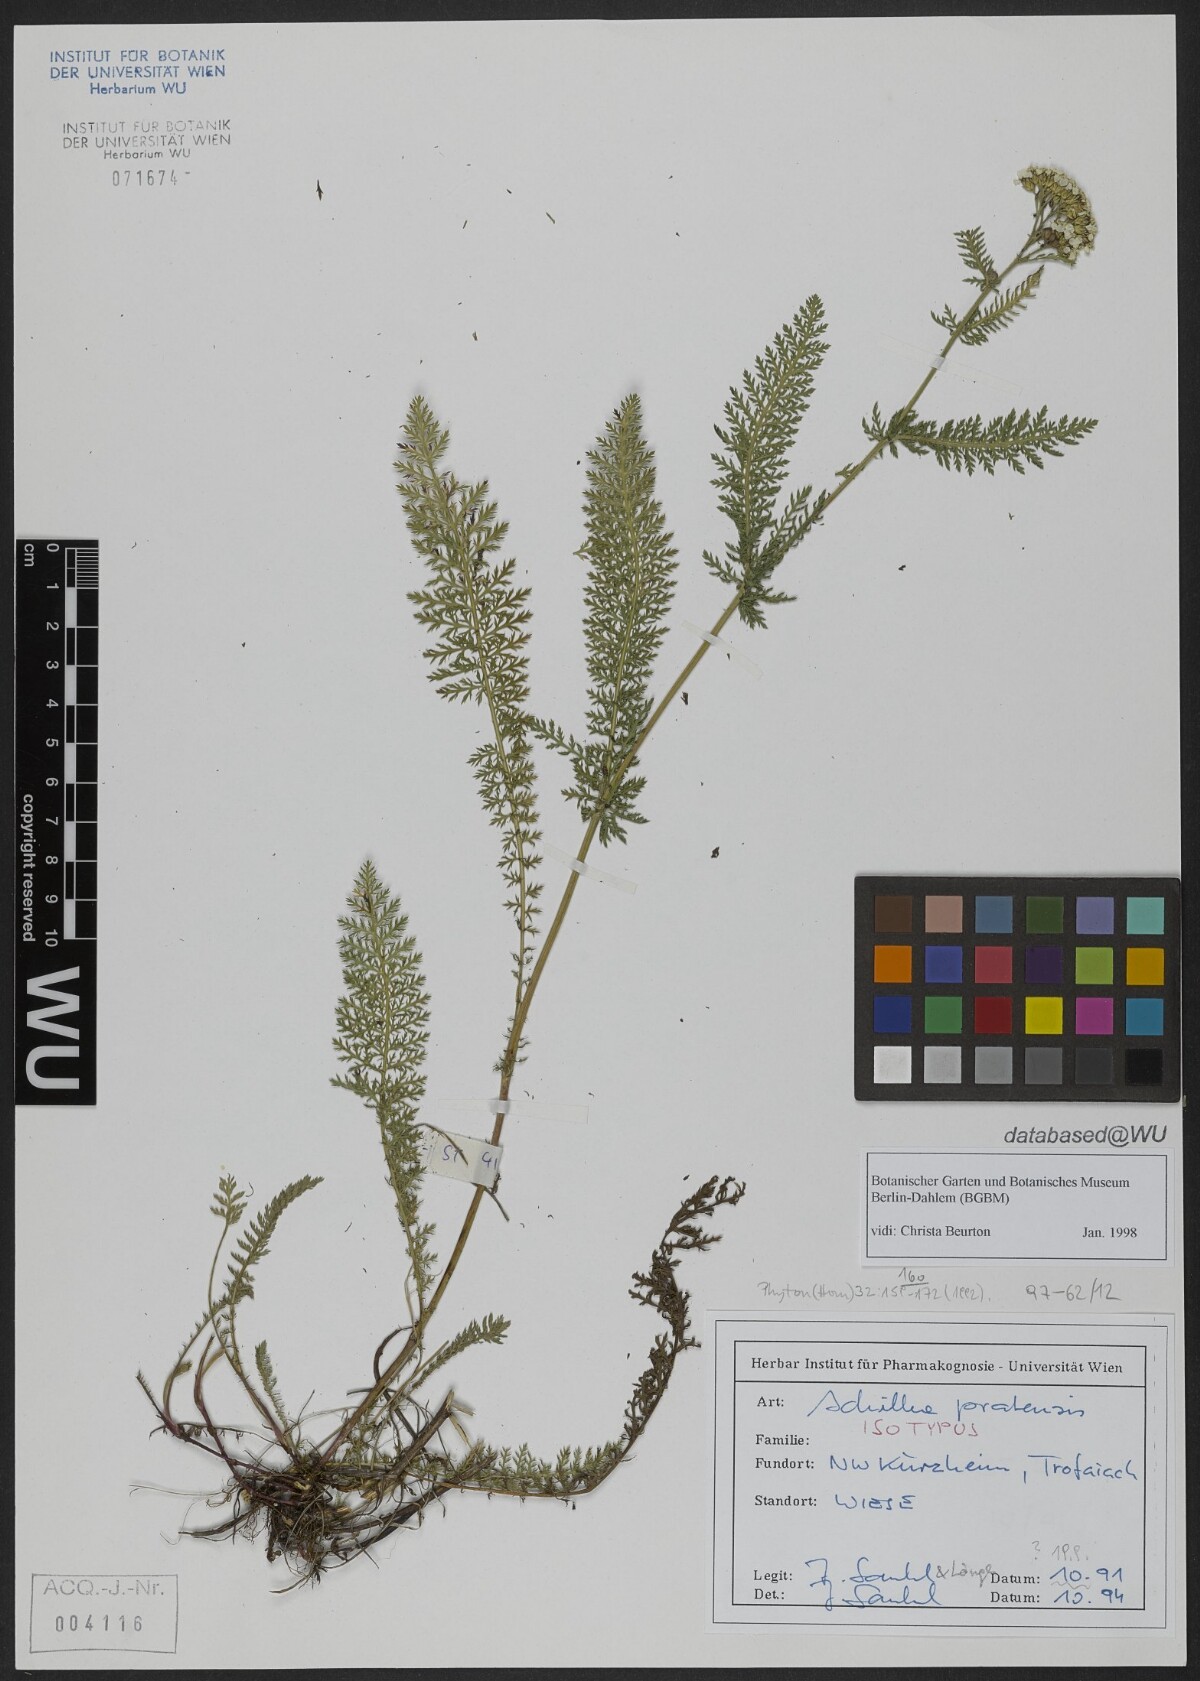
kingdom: Plantae
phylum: Tracheophyta
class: Magnoliopsida
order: Asterales
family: Asteraceae
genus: Achillea
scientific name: Achillea pratensis
